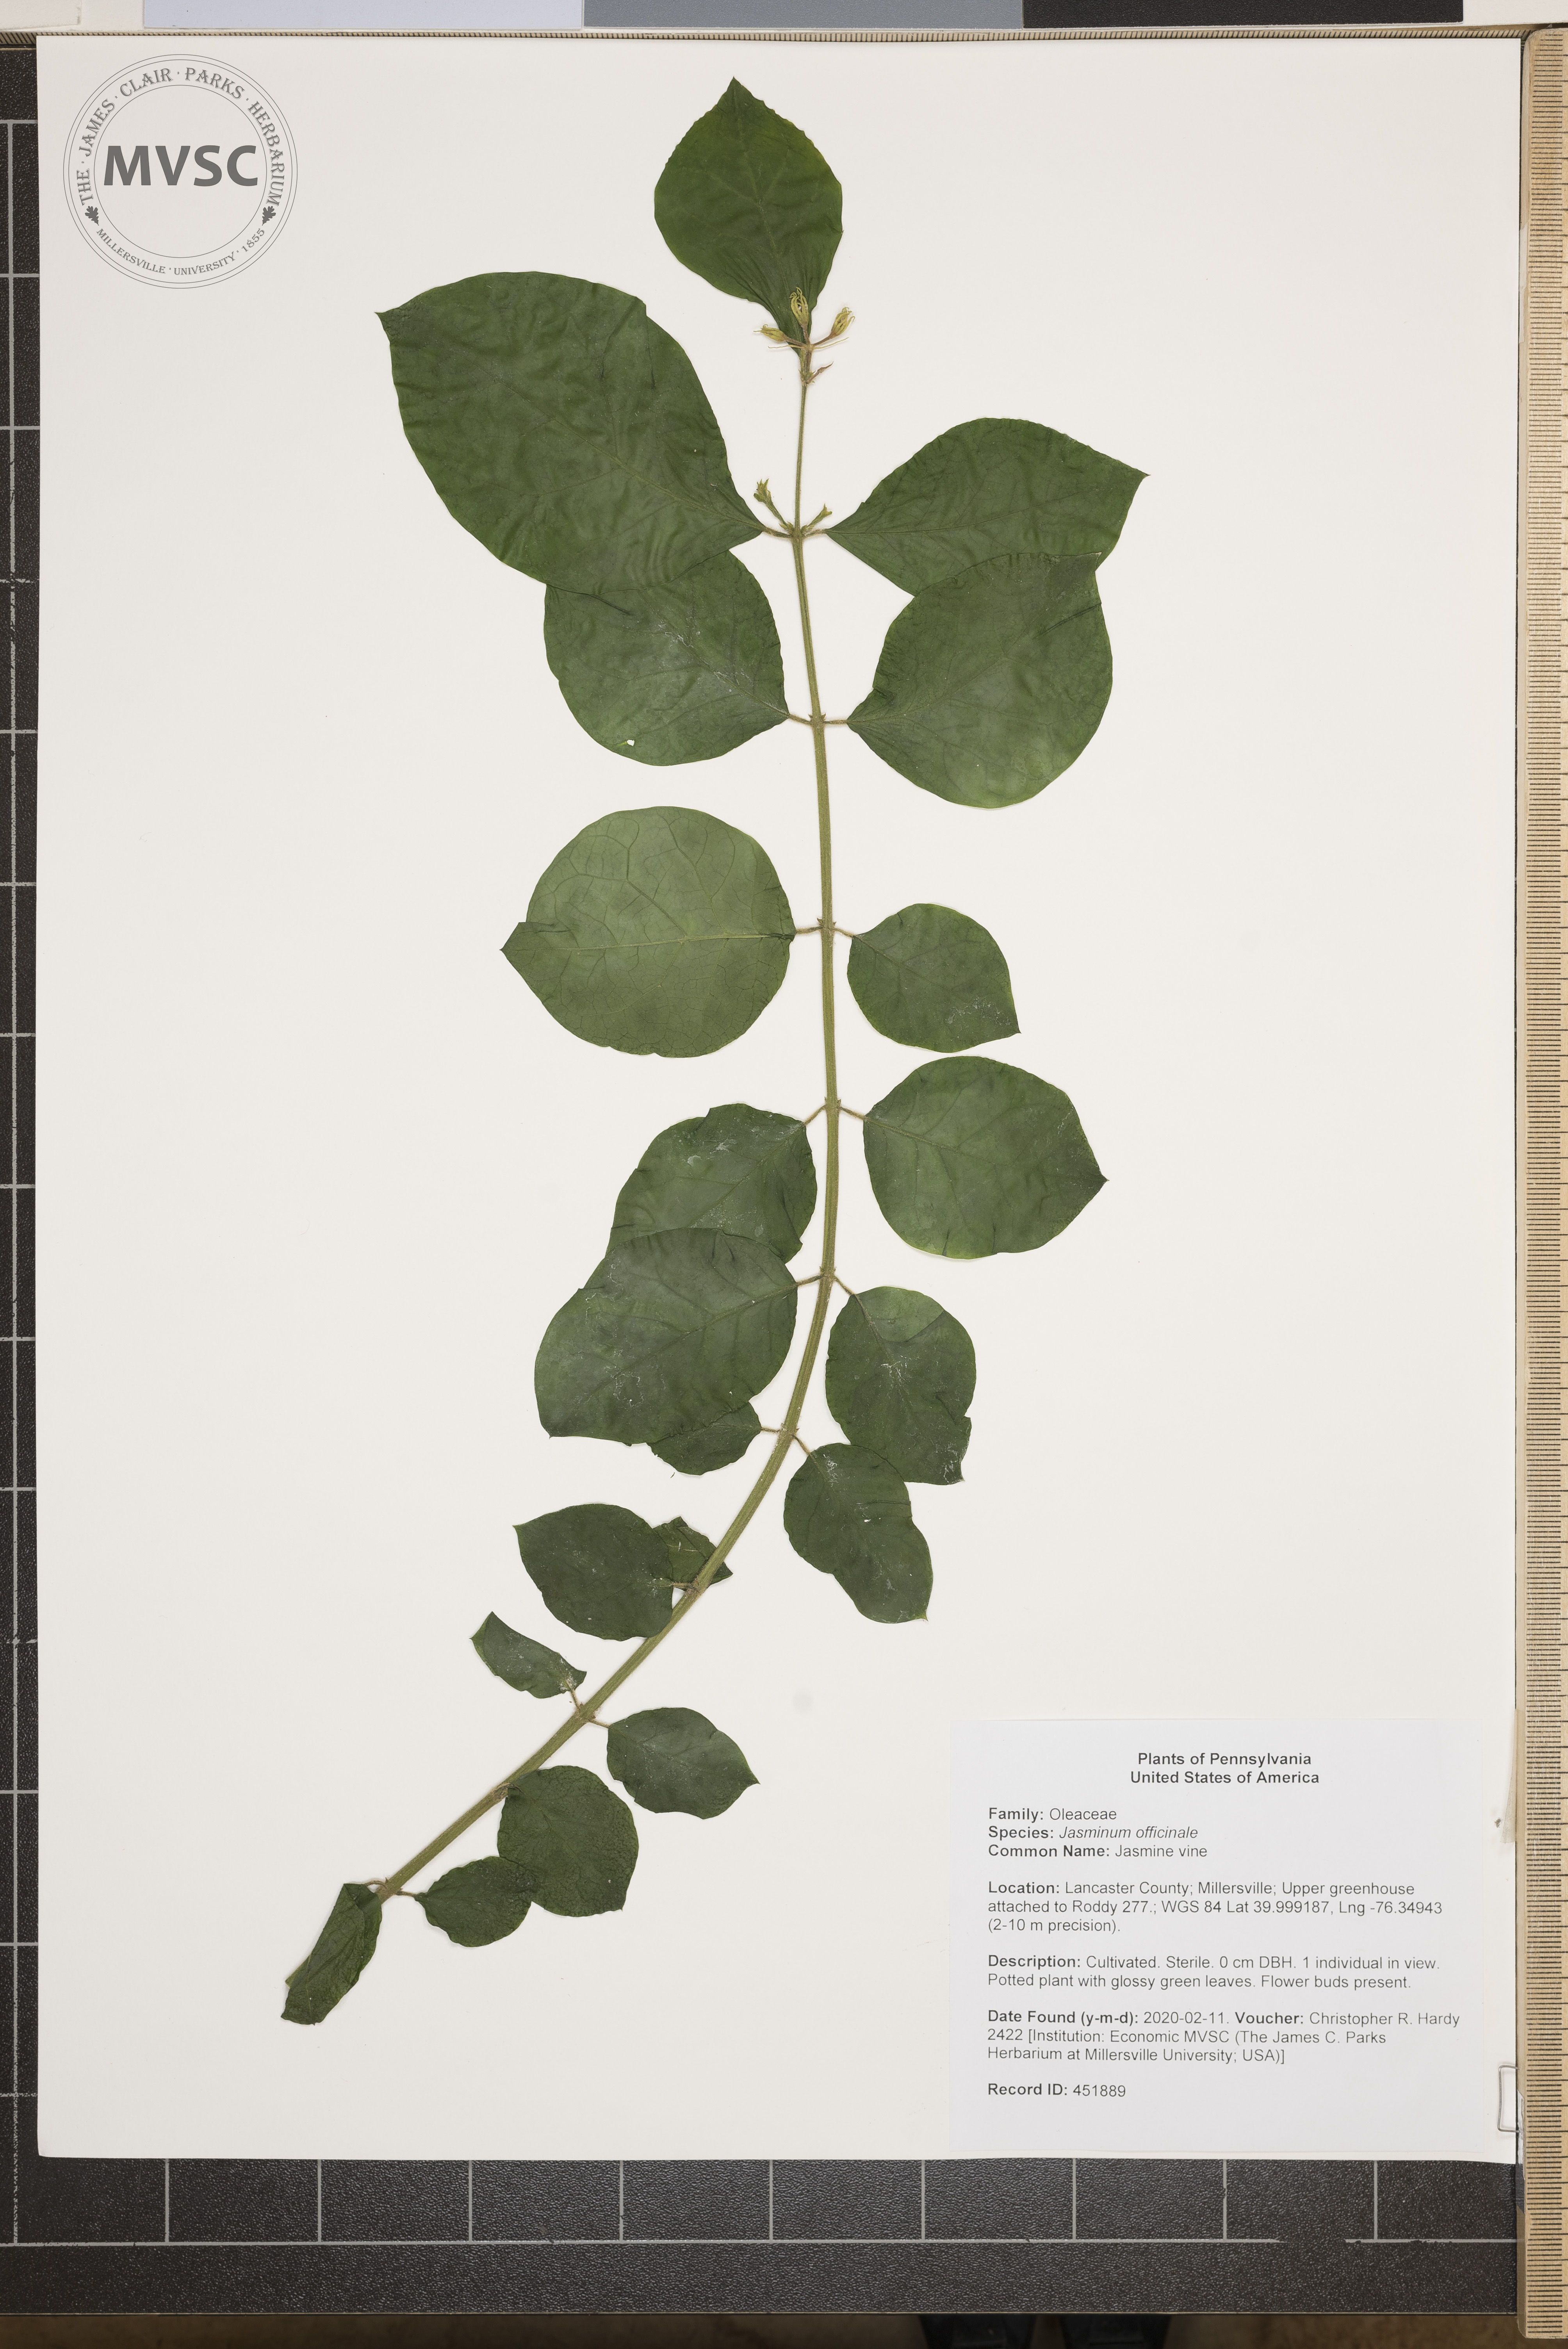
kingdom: Plantae
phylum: Tracheophyta
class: Magnoliopsida
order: Lamiales
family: Oleaceae
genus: Jasminum
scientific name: Jasminum officinale
